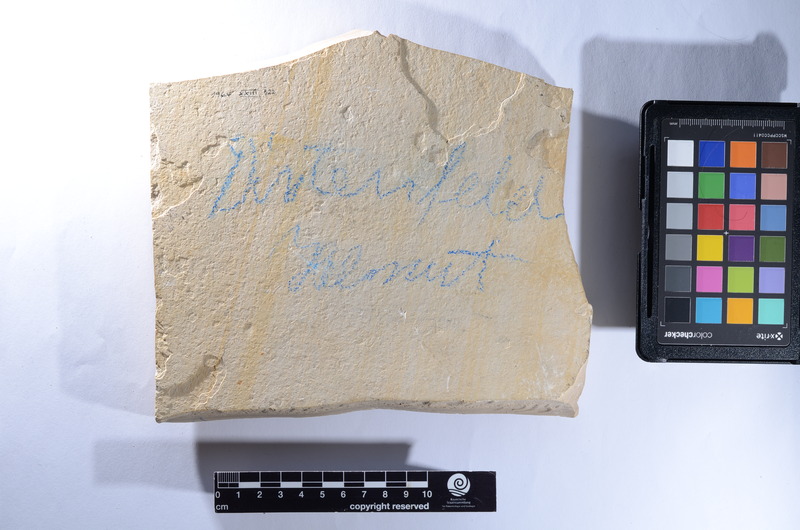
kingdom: Animalia
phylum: Chordata
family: Aspidorhynchidae
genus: Belonostomus
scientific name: Belonostomus
